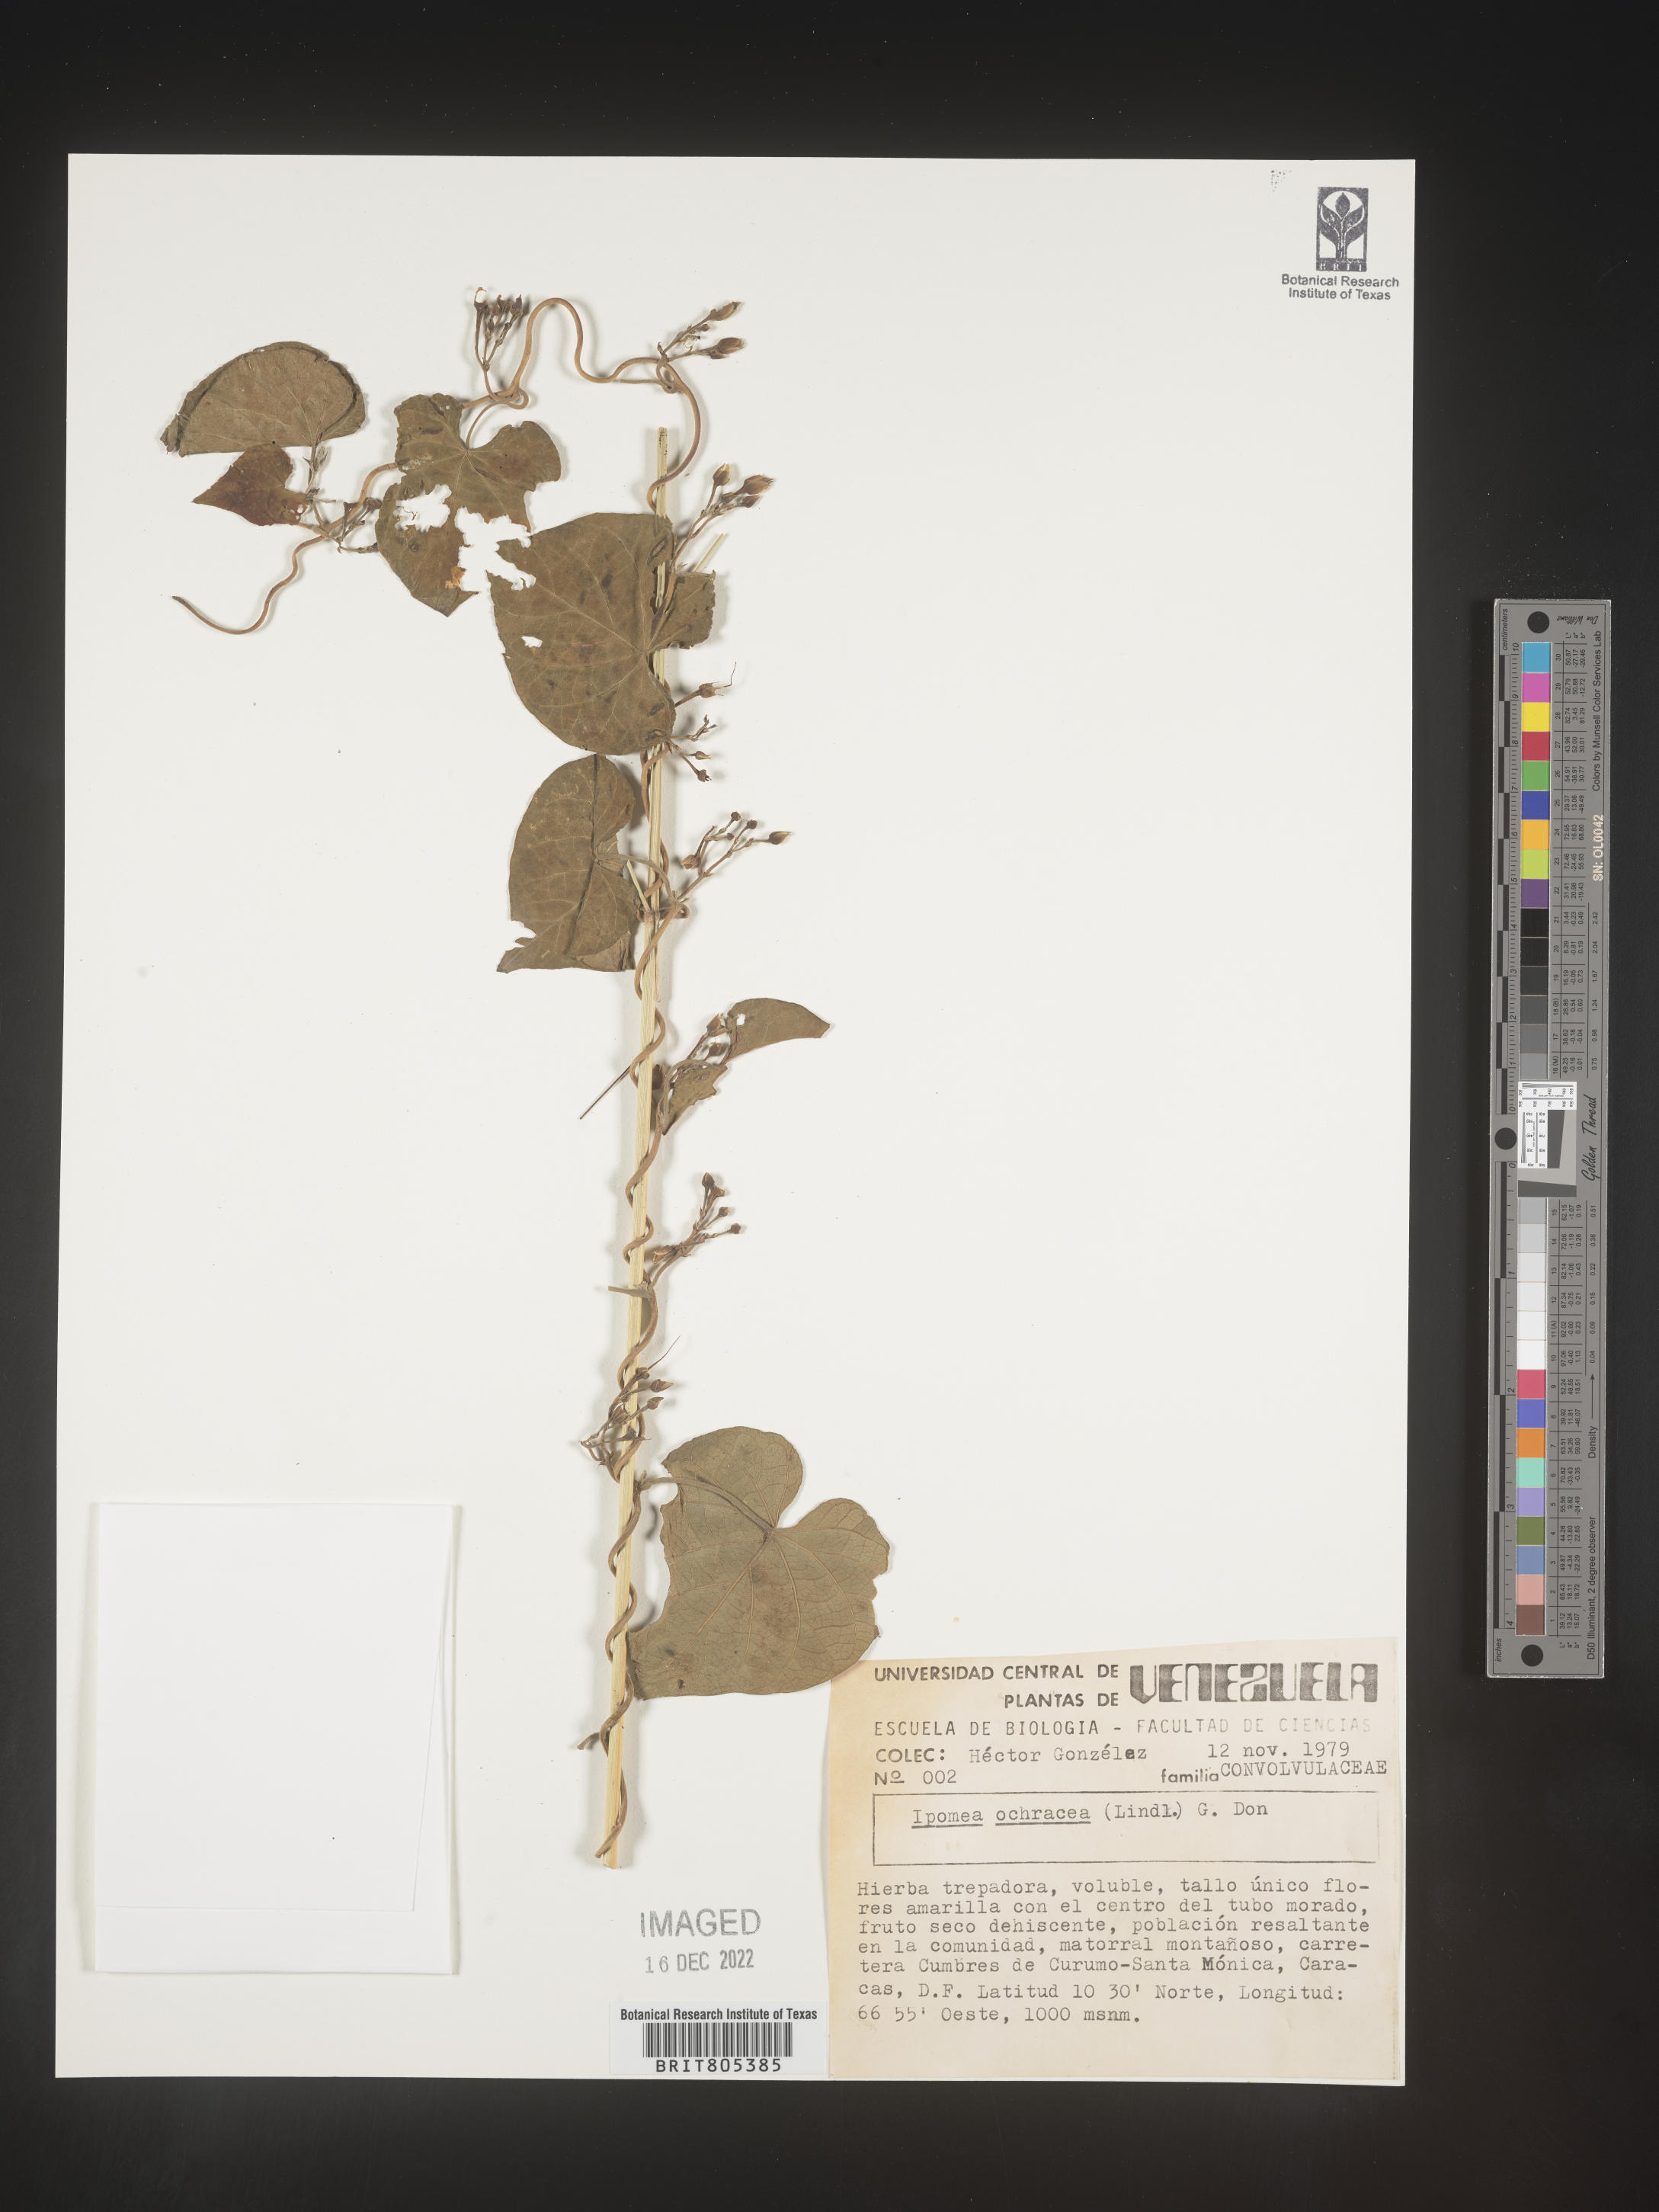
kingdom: Plantae
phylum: Tracheophyta
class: Magnoliopsida
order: Solanales
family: Convolvulaceae
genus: Ipomoea
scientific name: Ipomoea
